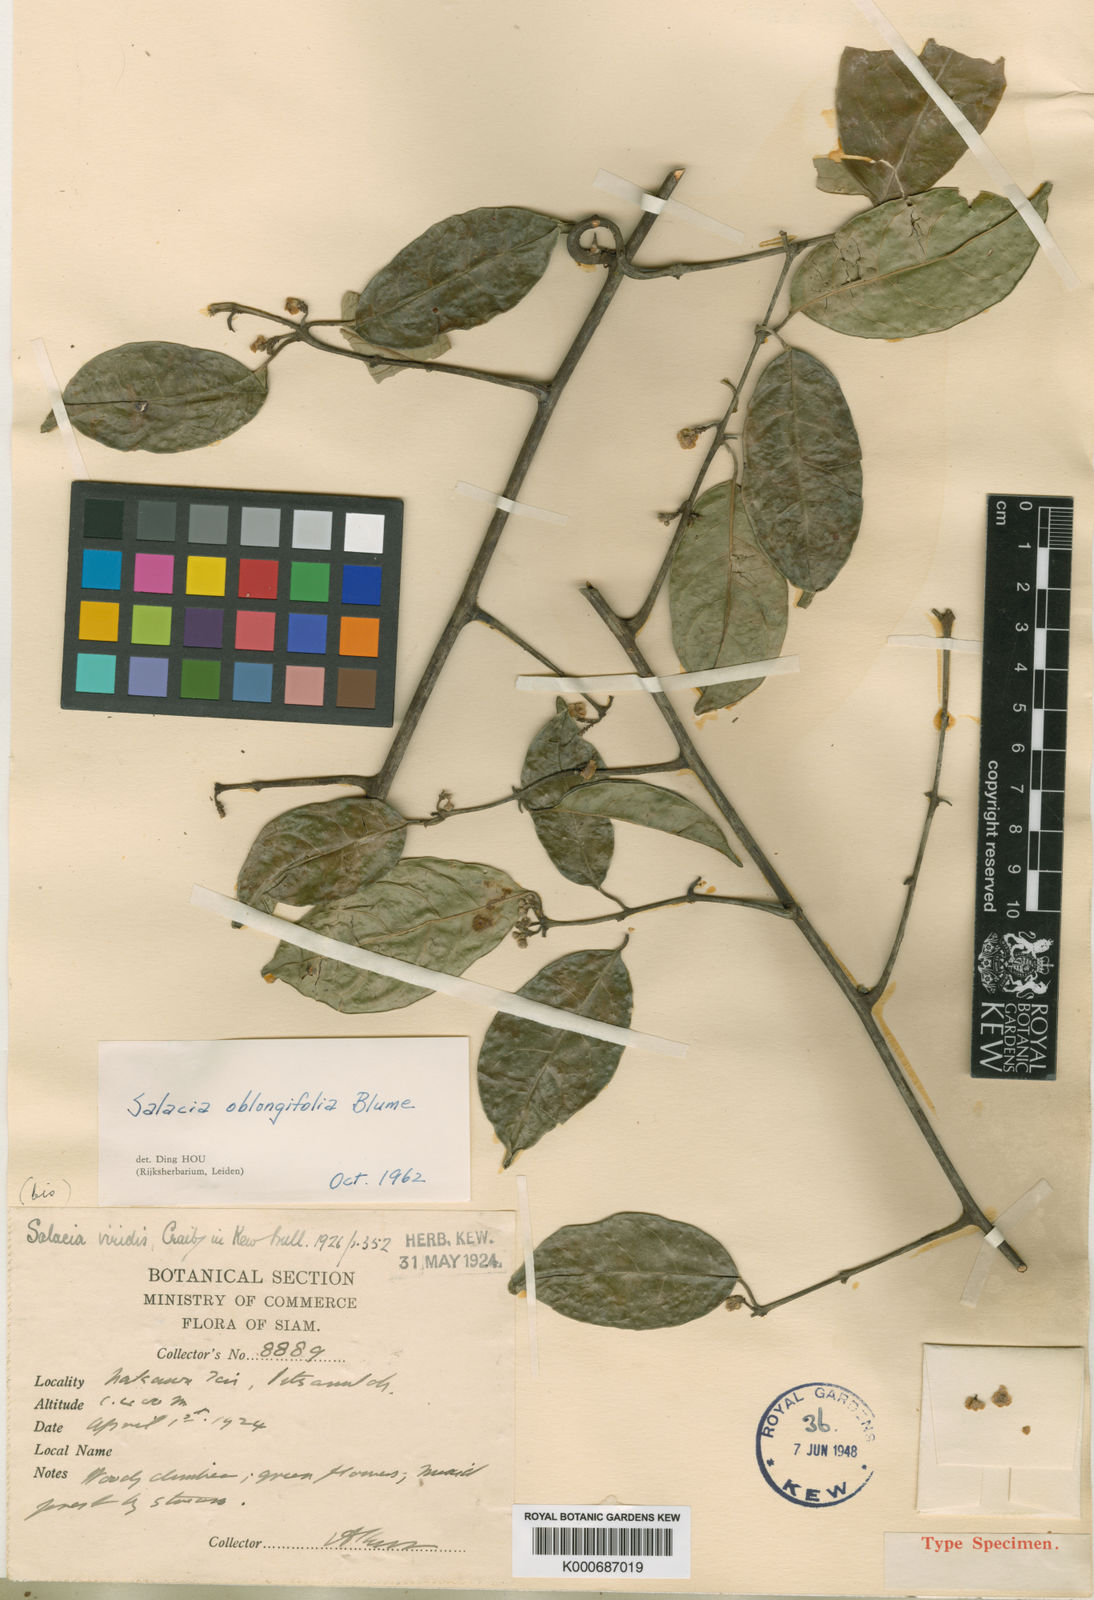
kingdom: Plantae
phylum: Tracheophyta
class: Magnoliopsida
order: Celastrales
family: Celastraceae
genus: Salacia
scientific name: Salacia oblongifolia
